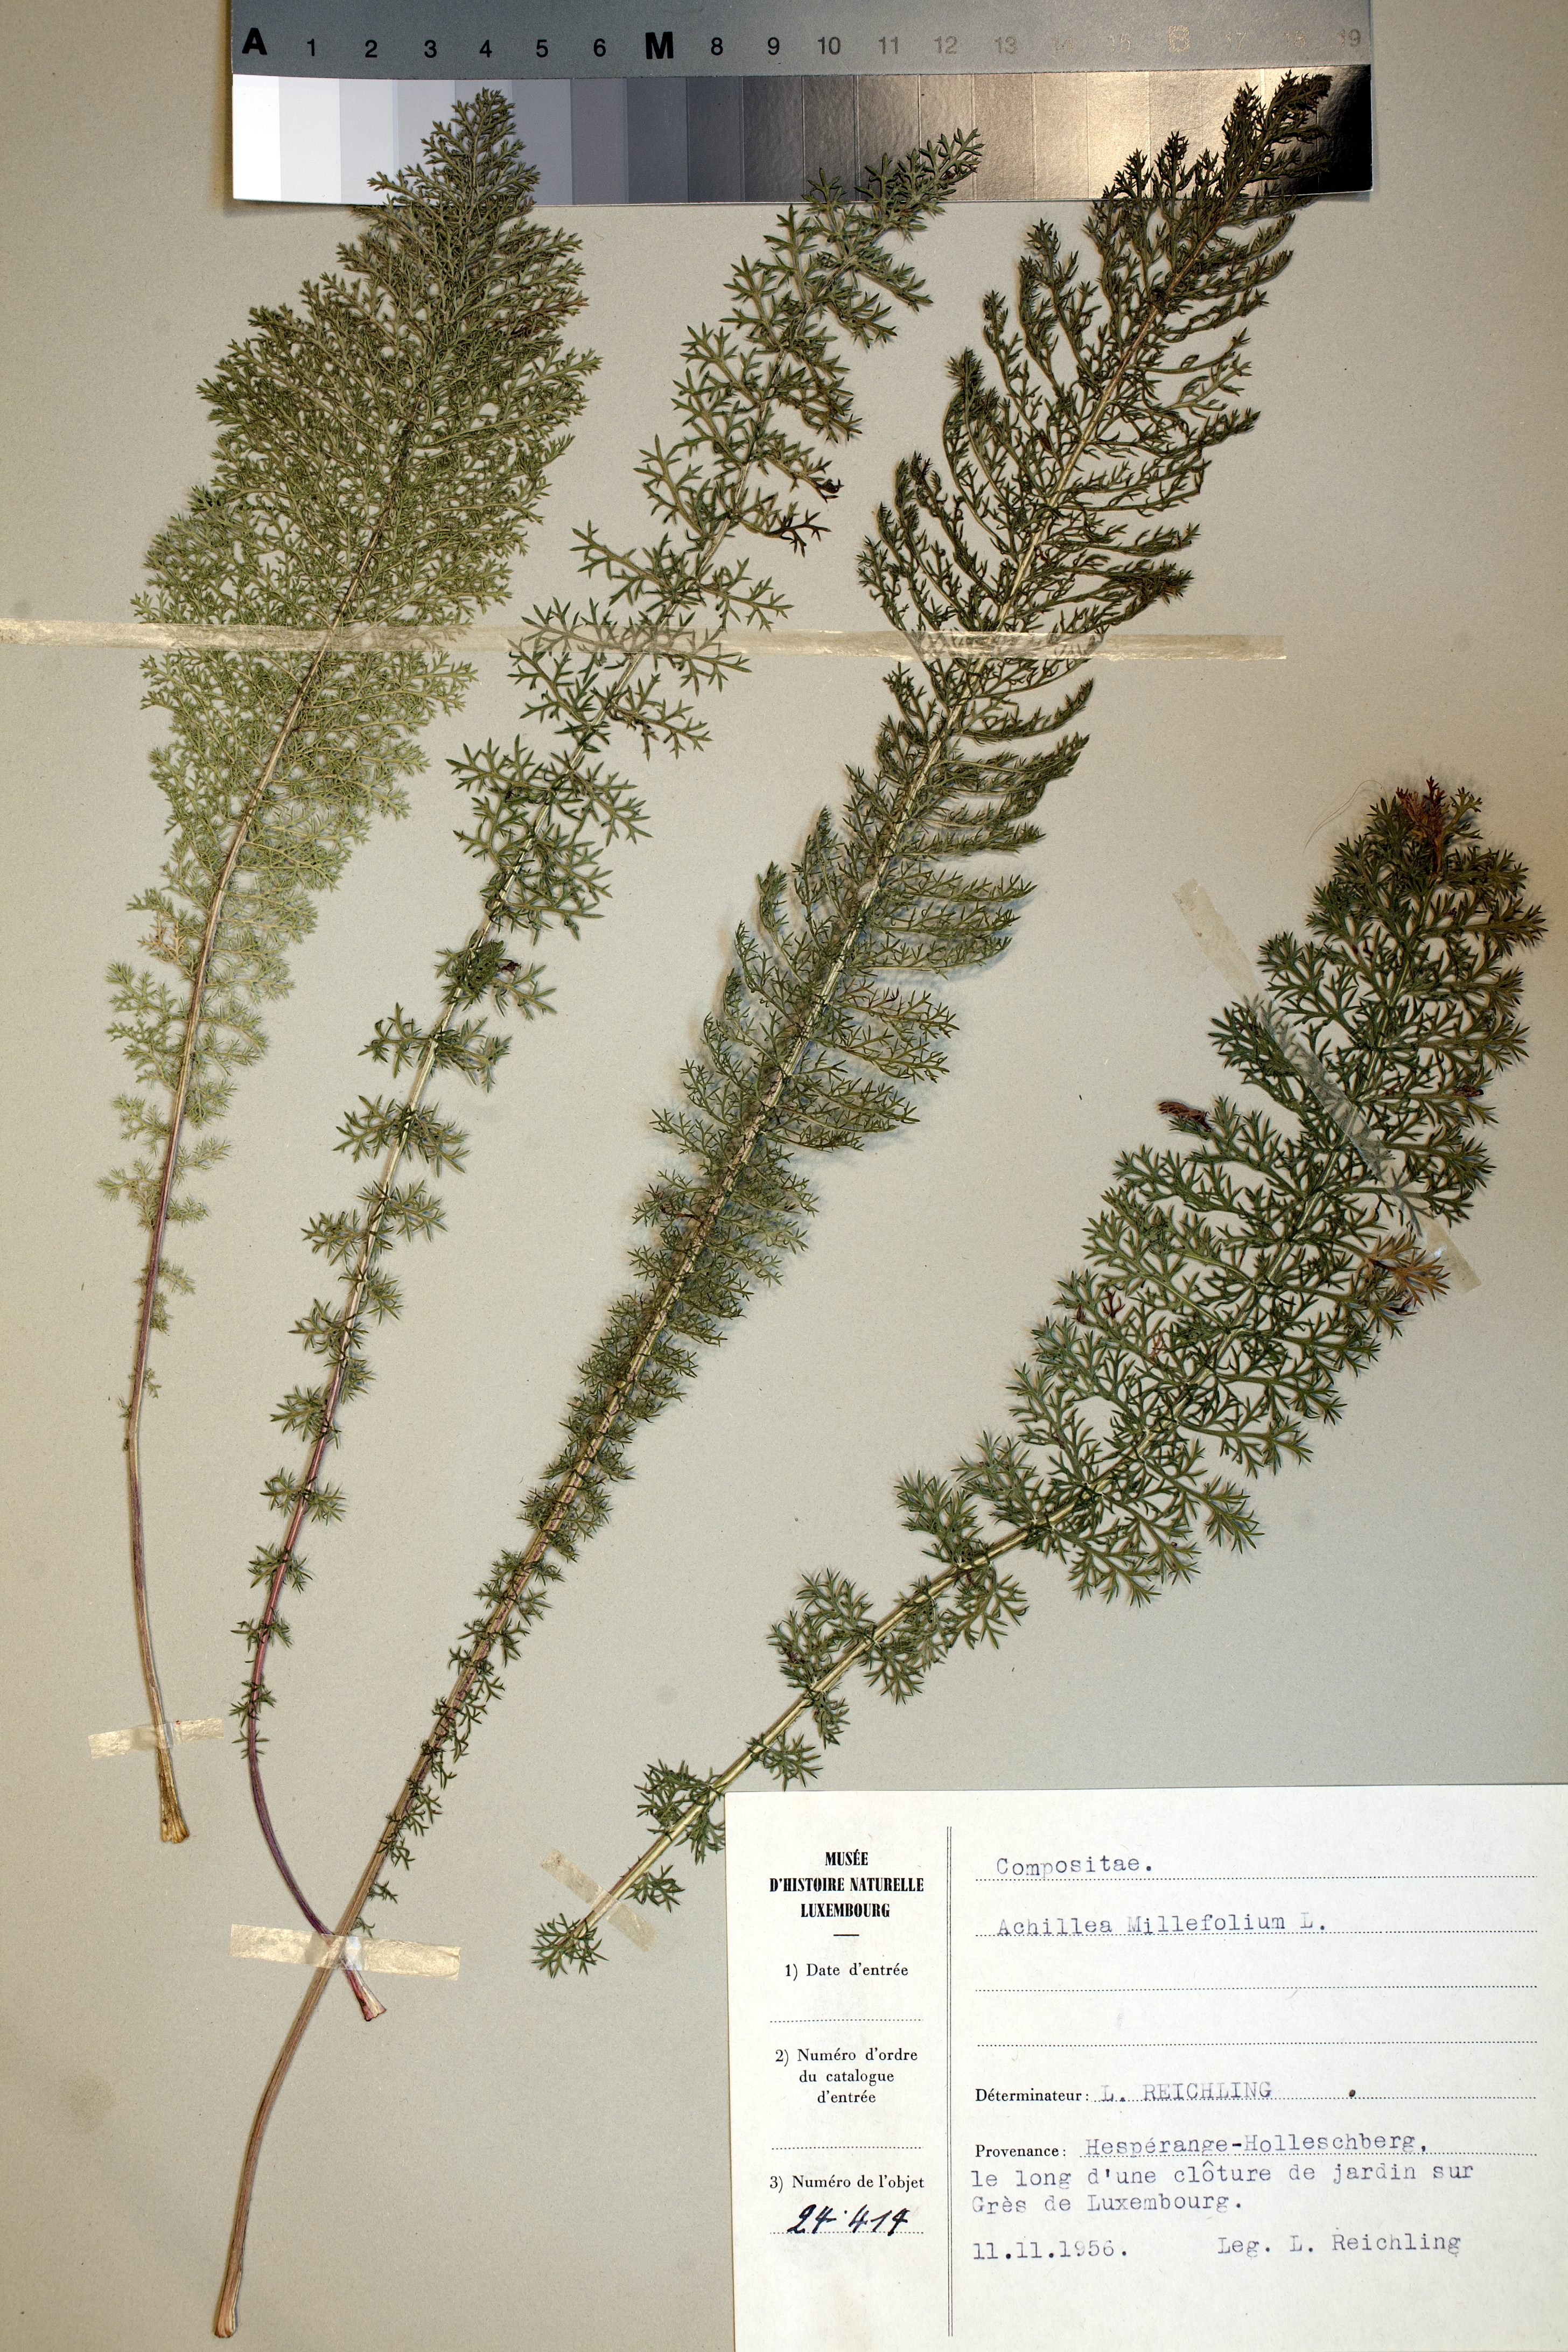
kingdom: Plantae
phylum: Tracheophyta
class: Magnoliopsida
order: Asterales
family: Asteraceae
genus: Achillea
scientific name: Achillea millefolium
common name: Yarrow
